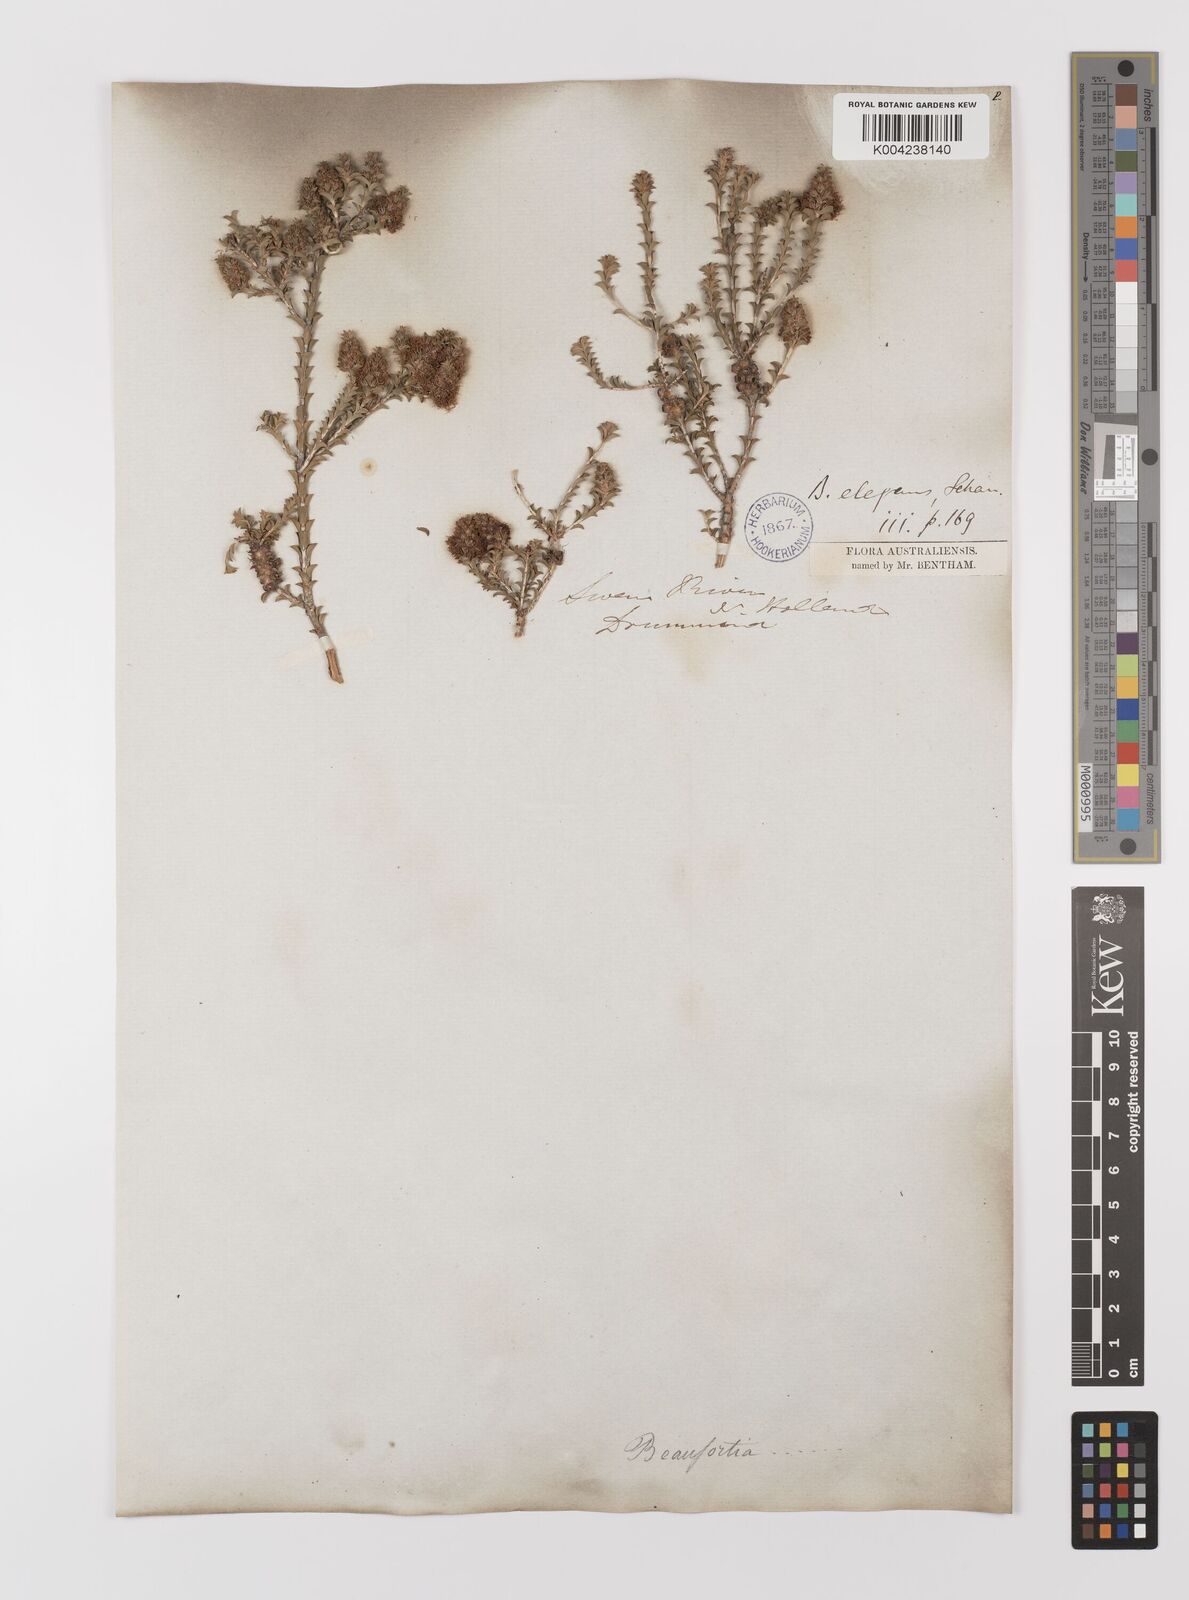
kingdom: Plantae
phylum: Tracheophyta
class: Magnoliopsida
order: Myrtales
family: Myrtaceae
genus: Melaleuca
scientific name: Melaleuca scitula
